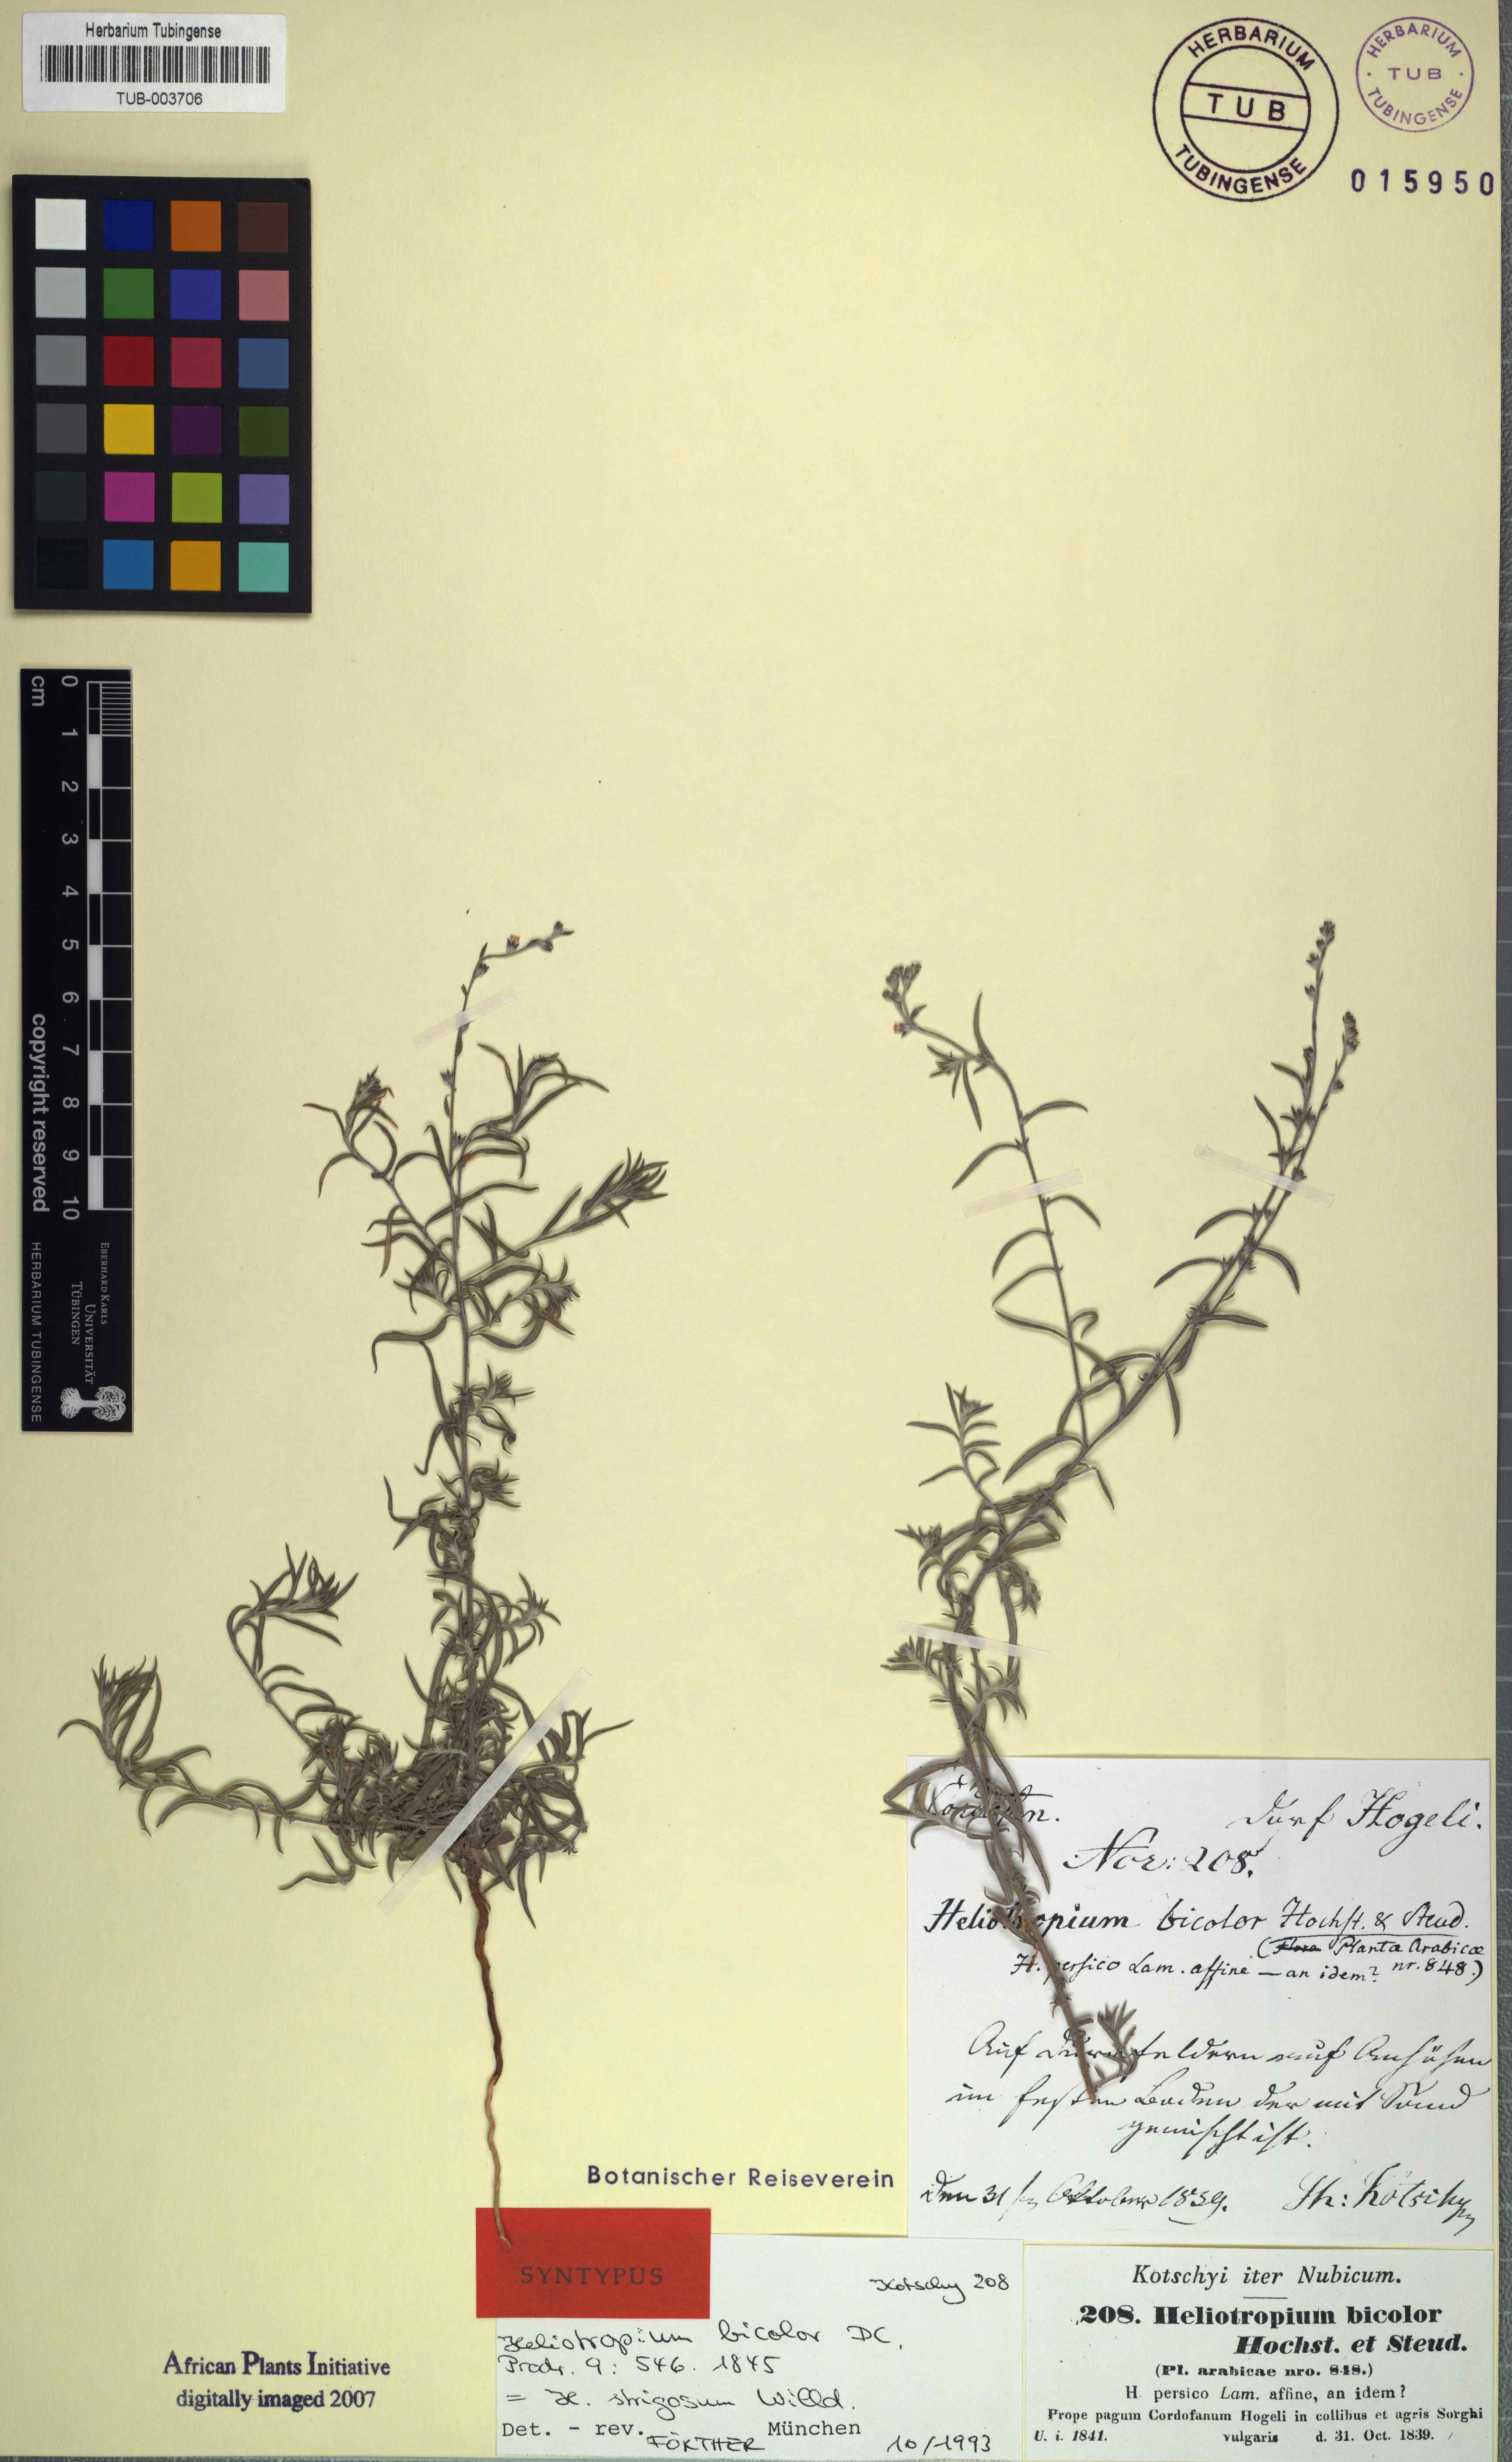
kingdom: Plantae
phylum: Tracheophyta
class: Magnoliopsida
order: Boraginales
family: Heliotropiaceae
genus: Euploca
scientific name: Euploca strigosa
